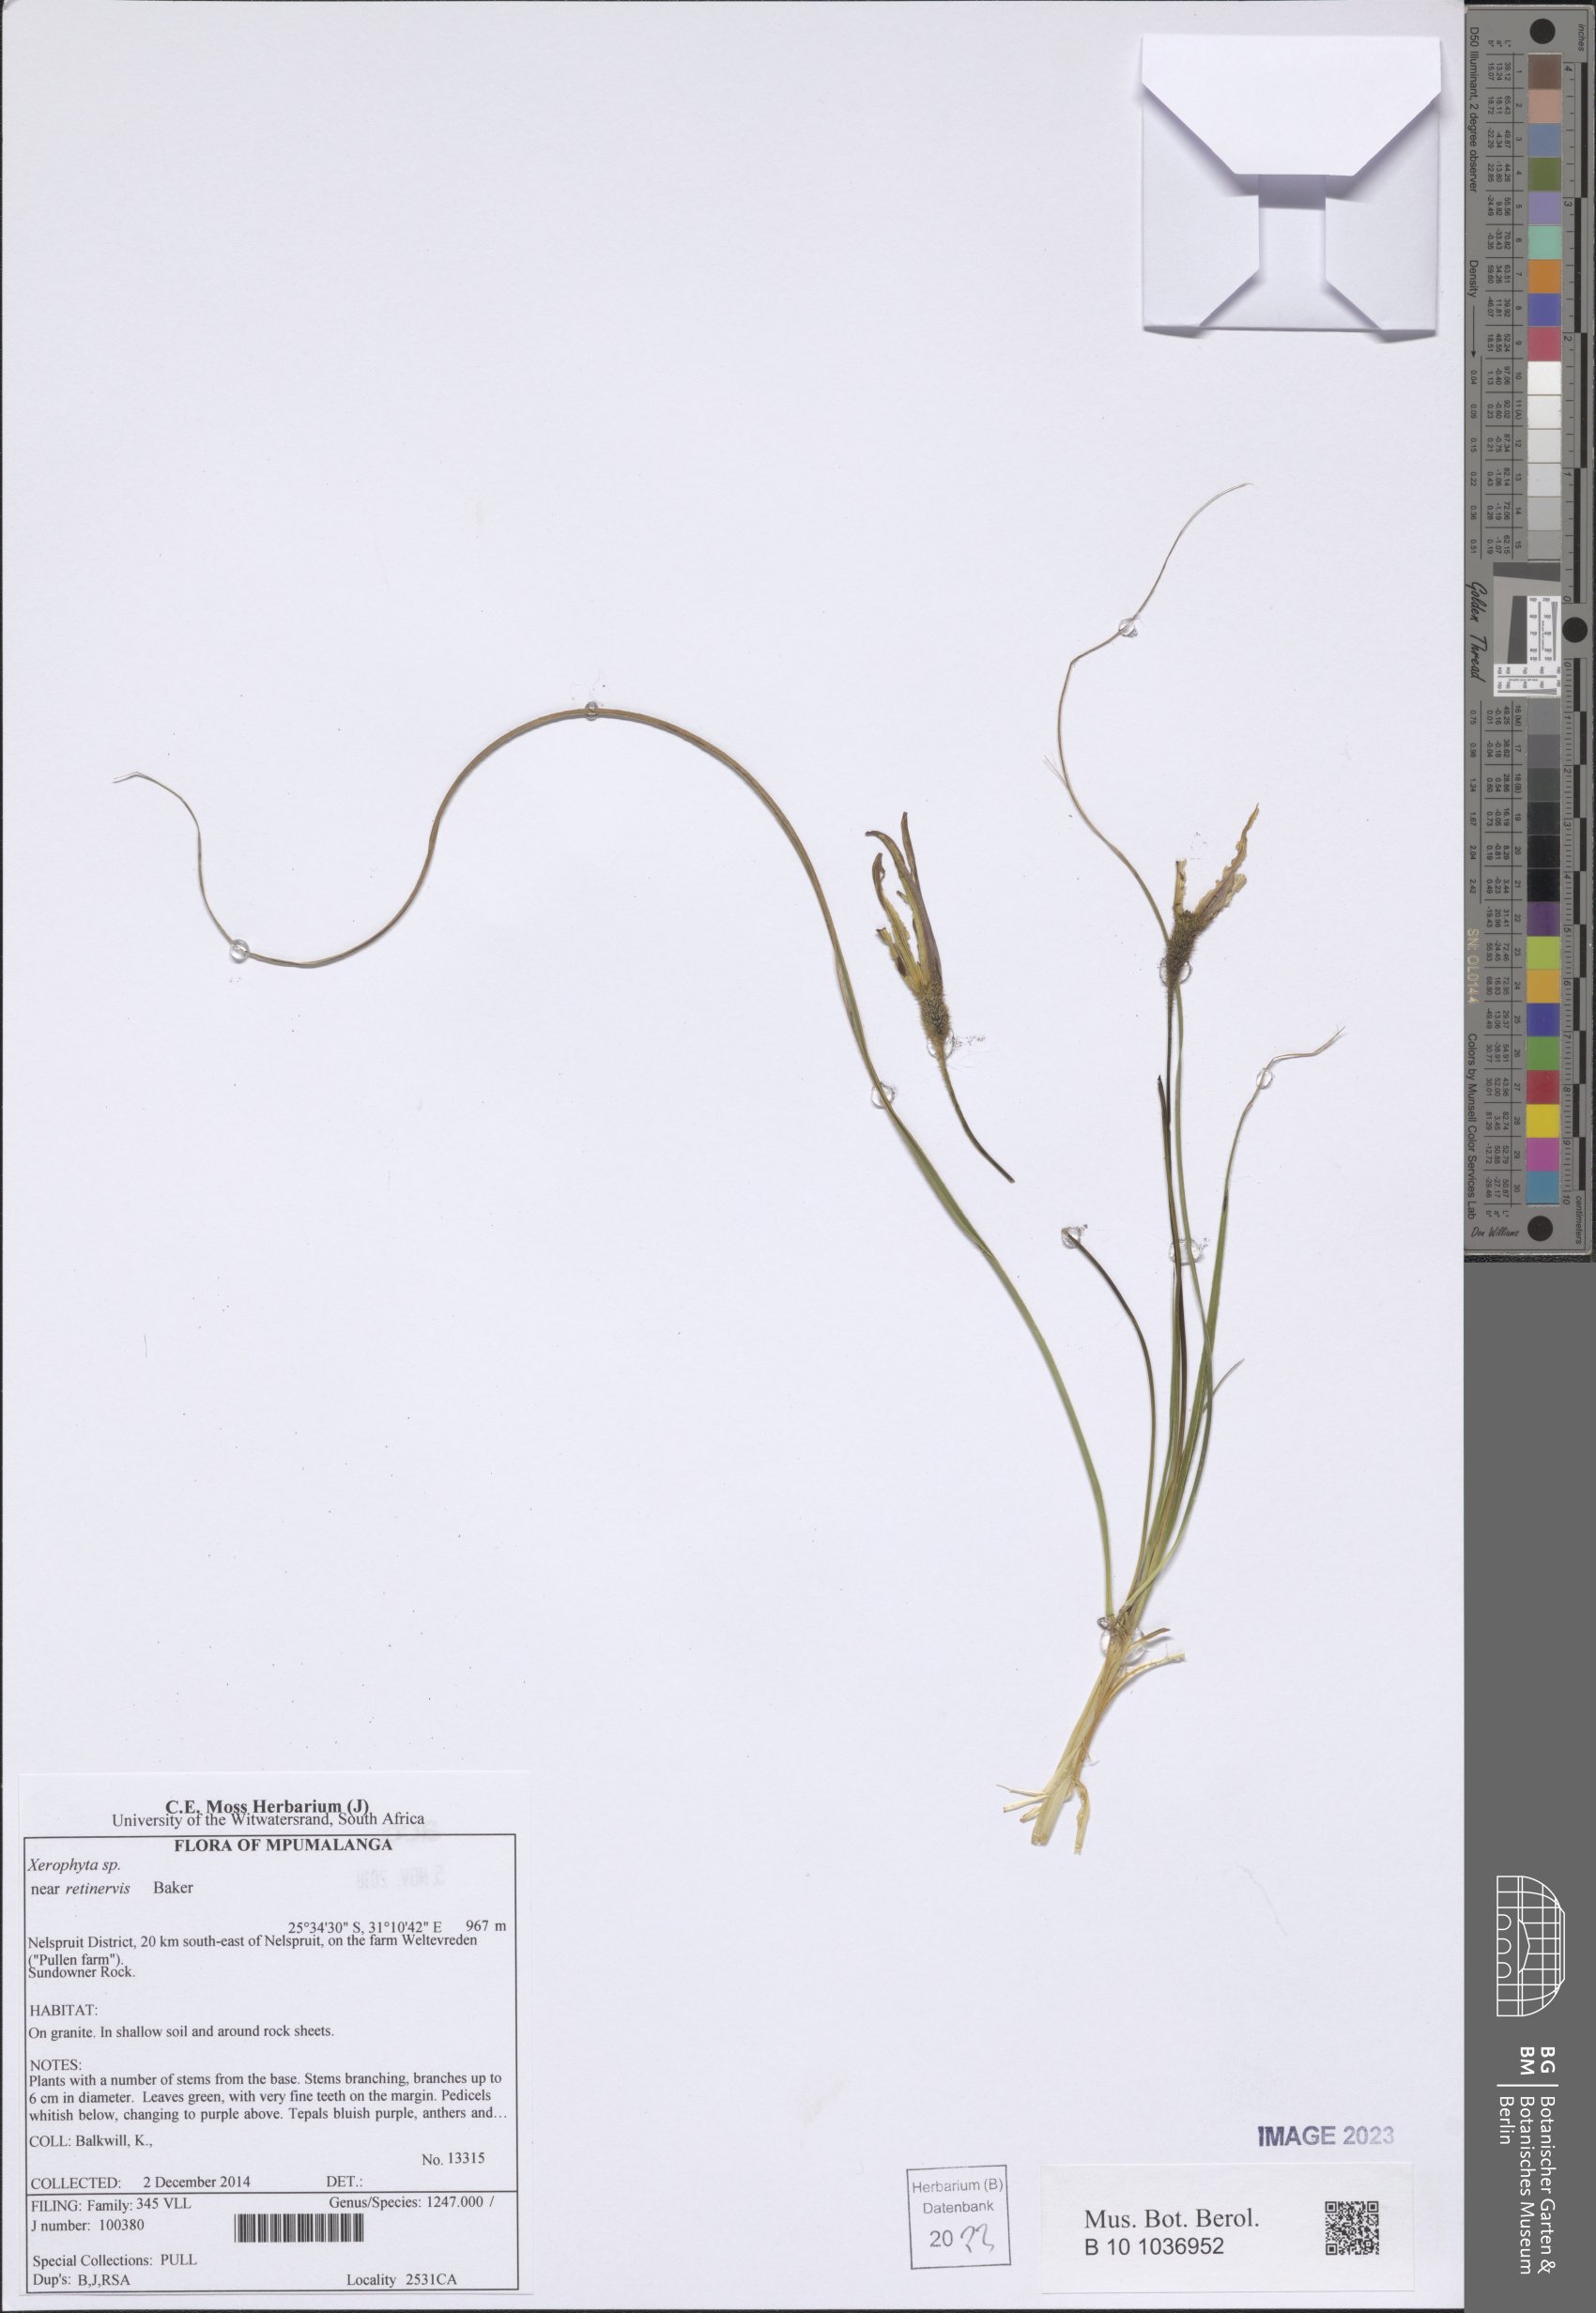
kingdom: Plantae
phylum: Tracheophyta
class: Liliopsida
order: Pandanales
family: Velloziaceae
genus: Xerophyta
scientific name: Xerophyta retinervis
